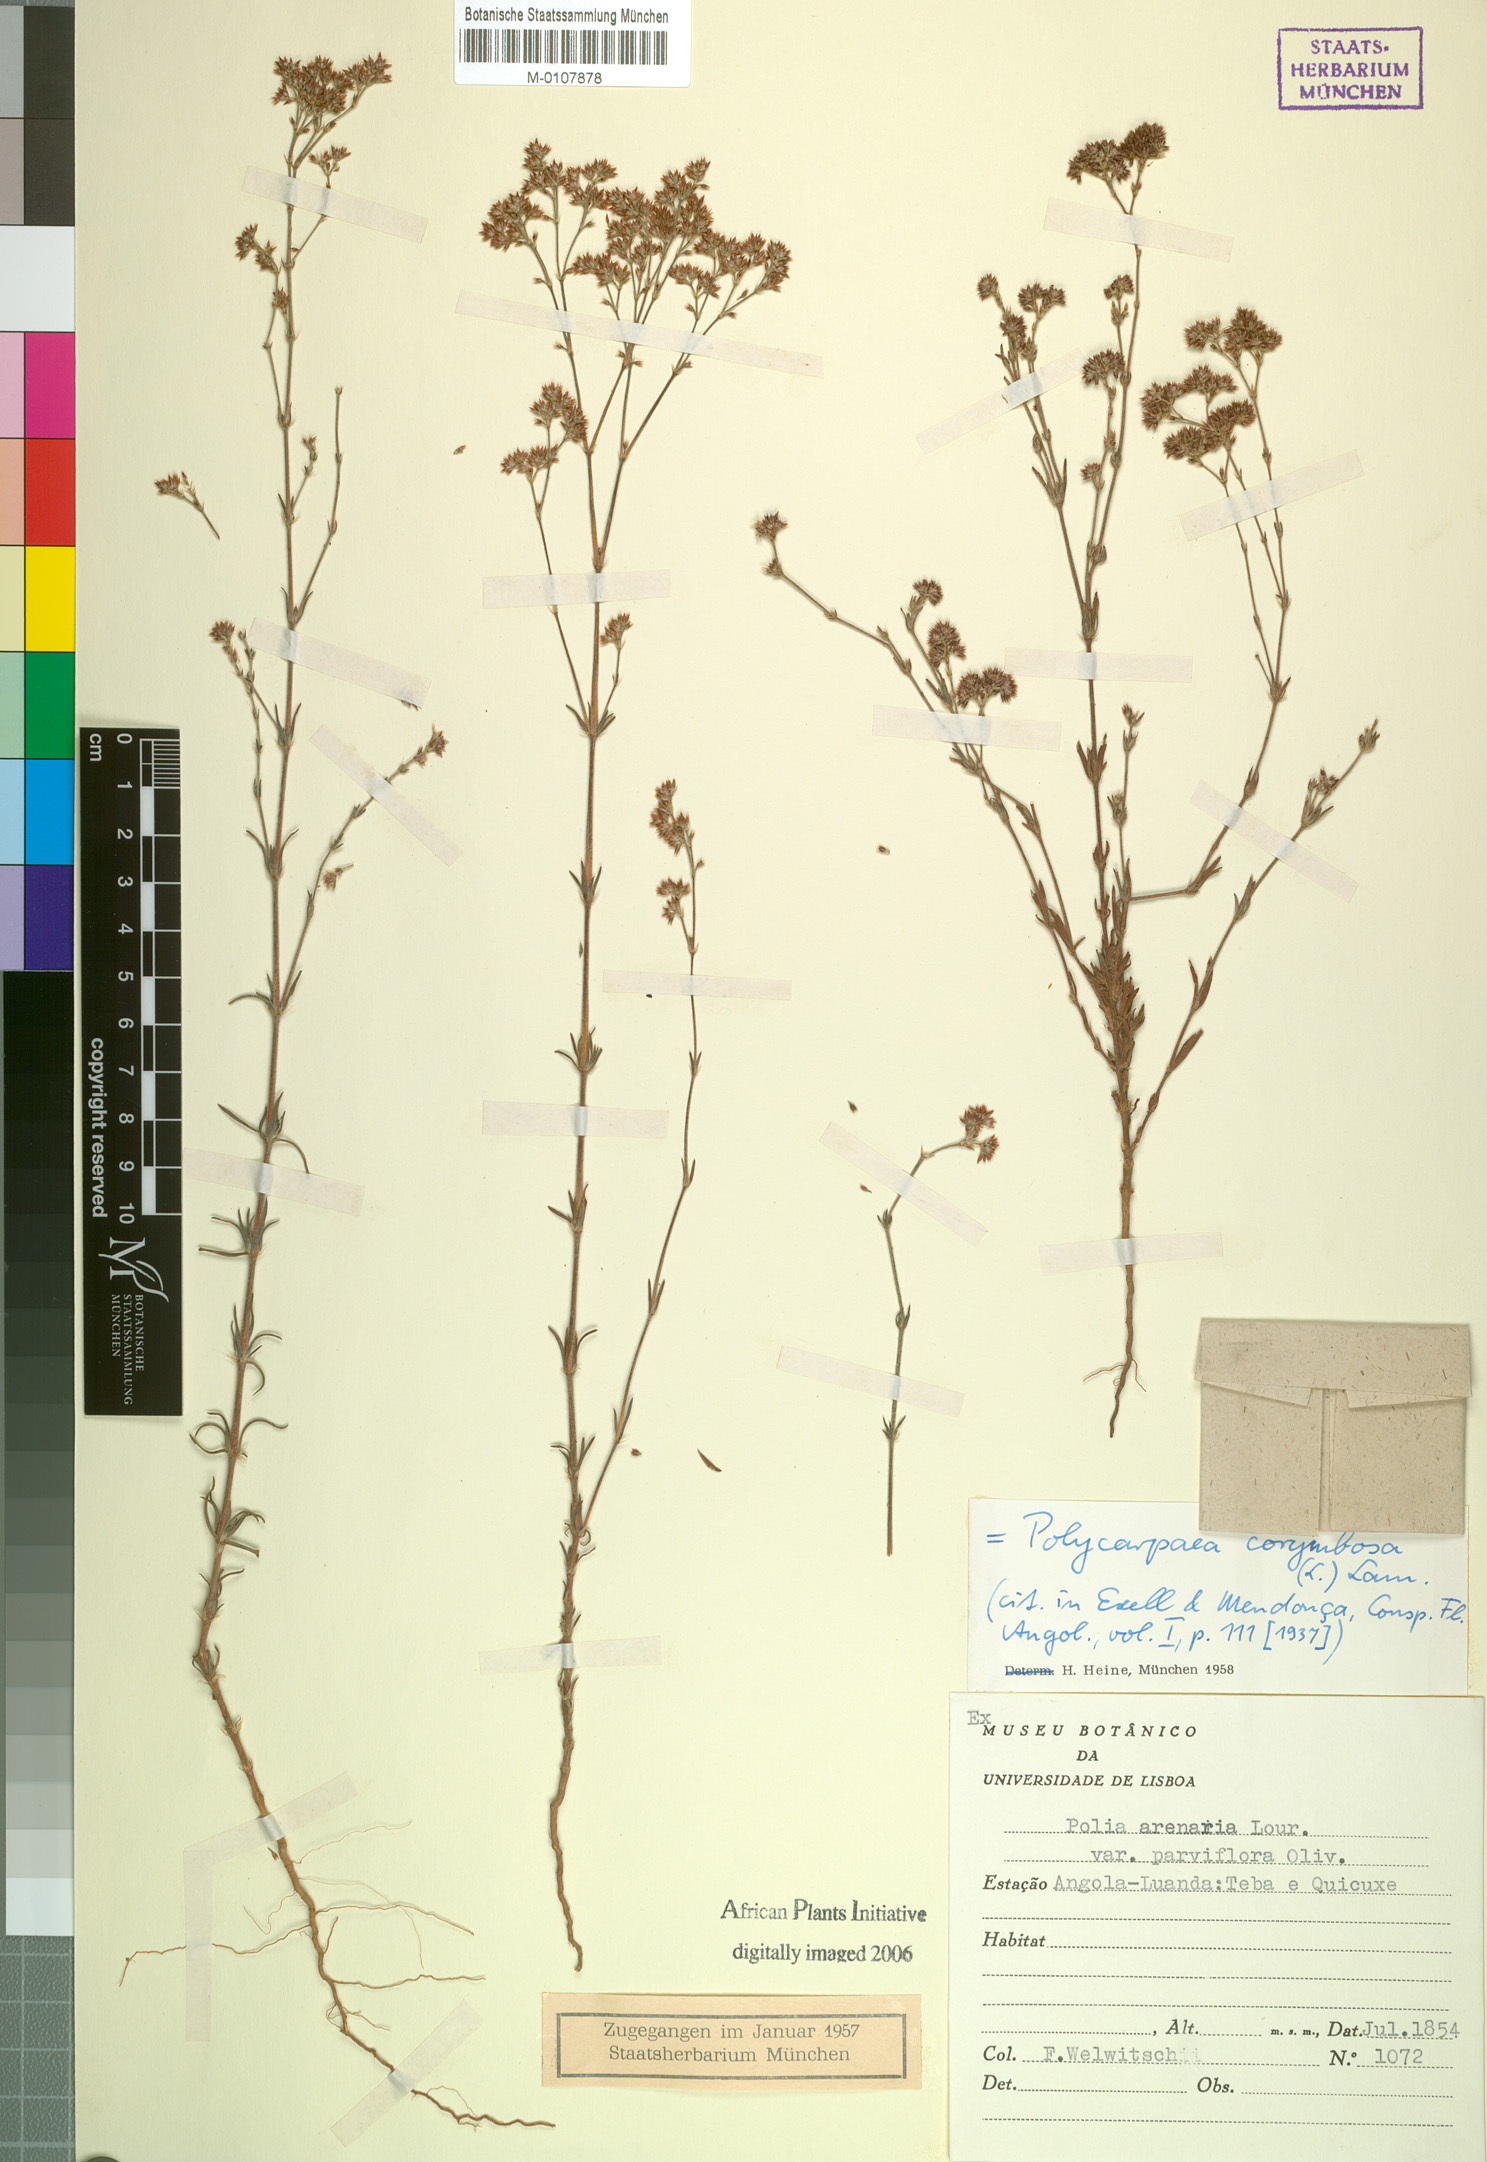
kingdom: Plantae
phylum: Tracheophyta
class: Magnoliopsida
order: Caryophyllales
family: Caryophyllaceae
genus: Polycarpaea
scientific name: Polycarpaea corymbosa
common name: Oldman's cap
